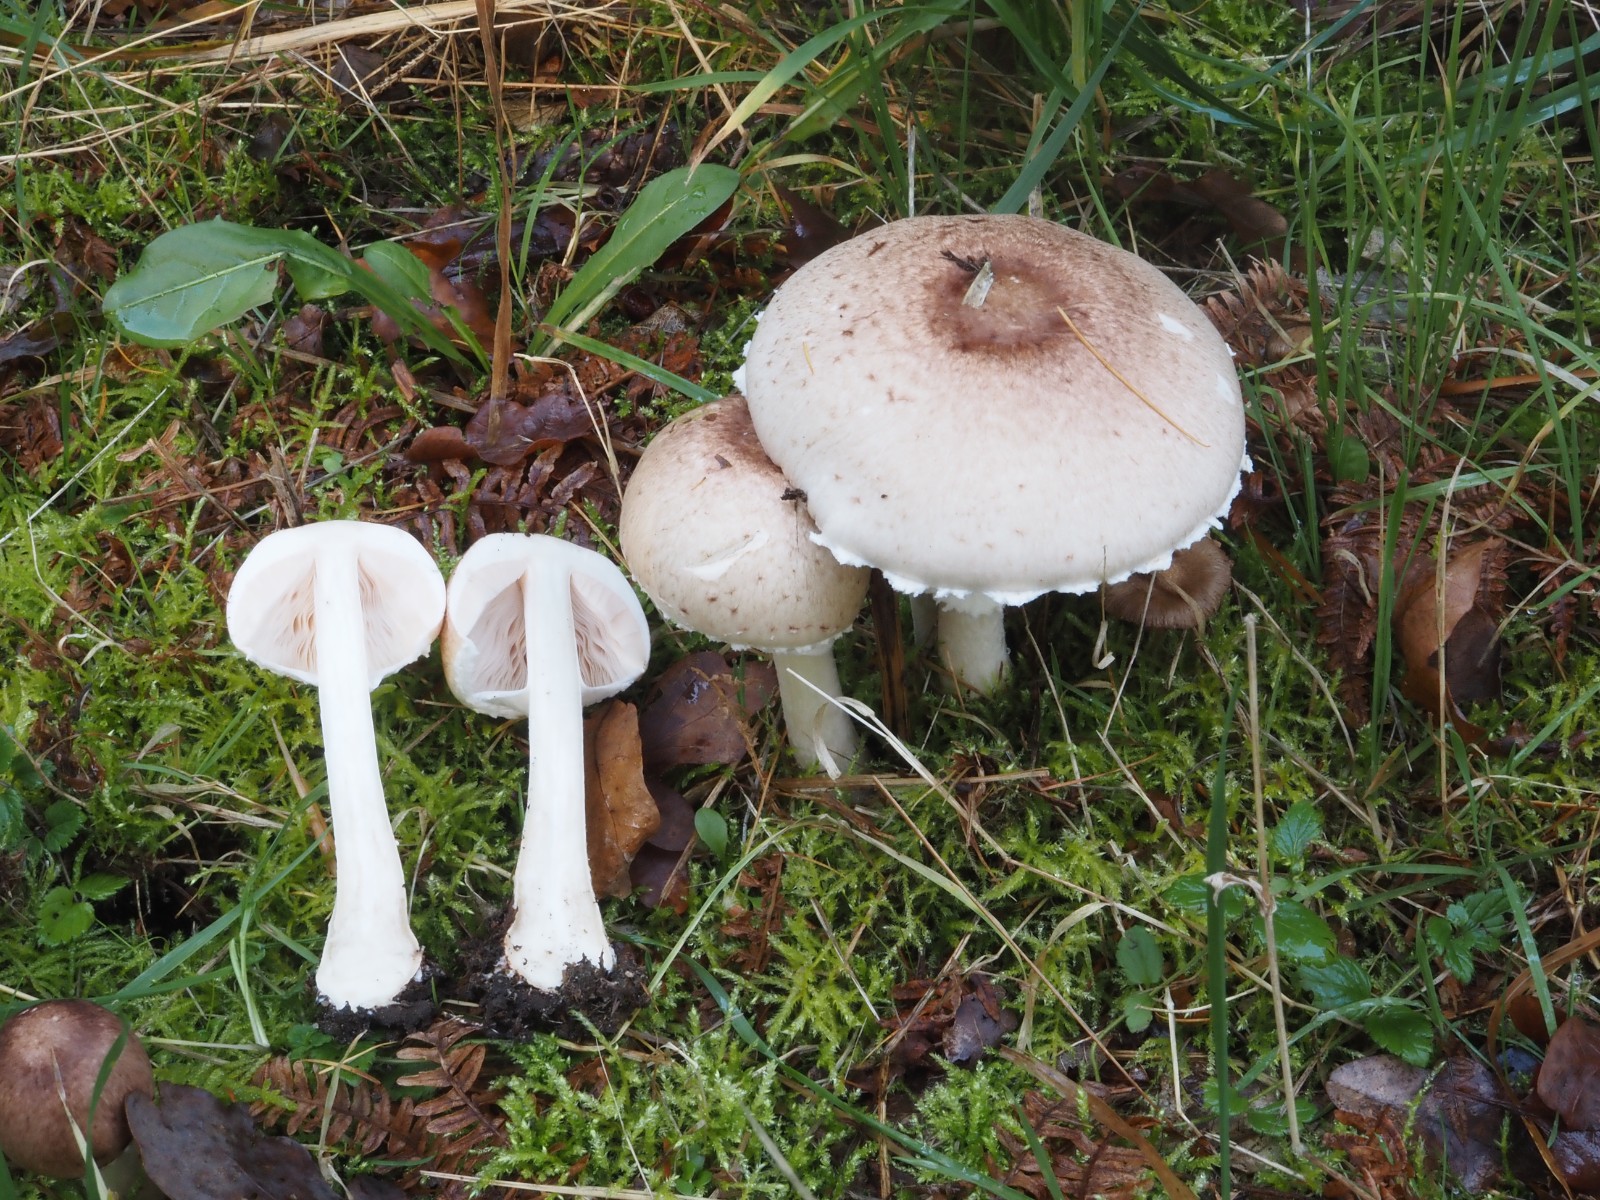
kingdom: Fungi
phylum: Basidiomycota
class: Agaricomycetes
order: Agaricales
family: Agaricaceae
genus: Agaricus
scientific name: Agaricus impudicus
